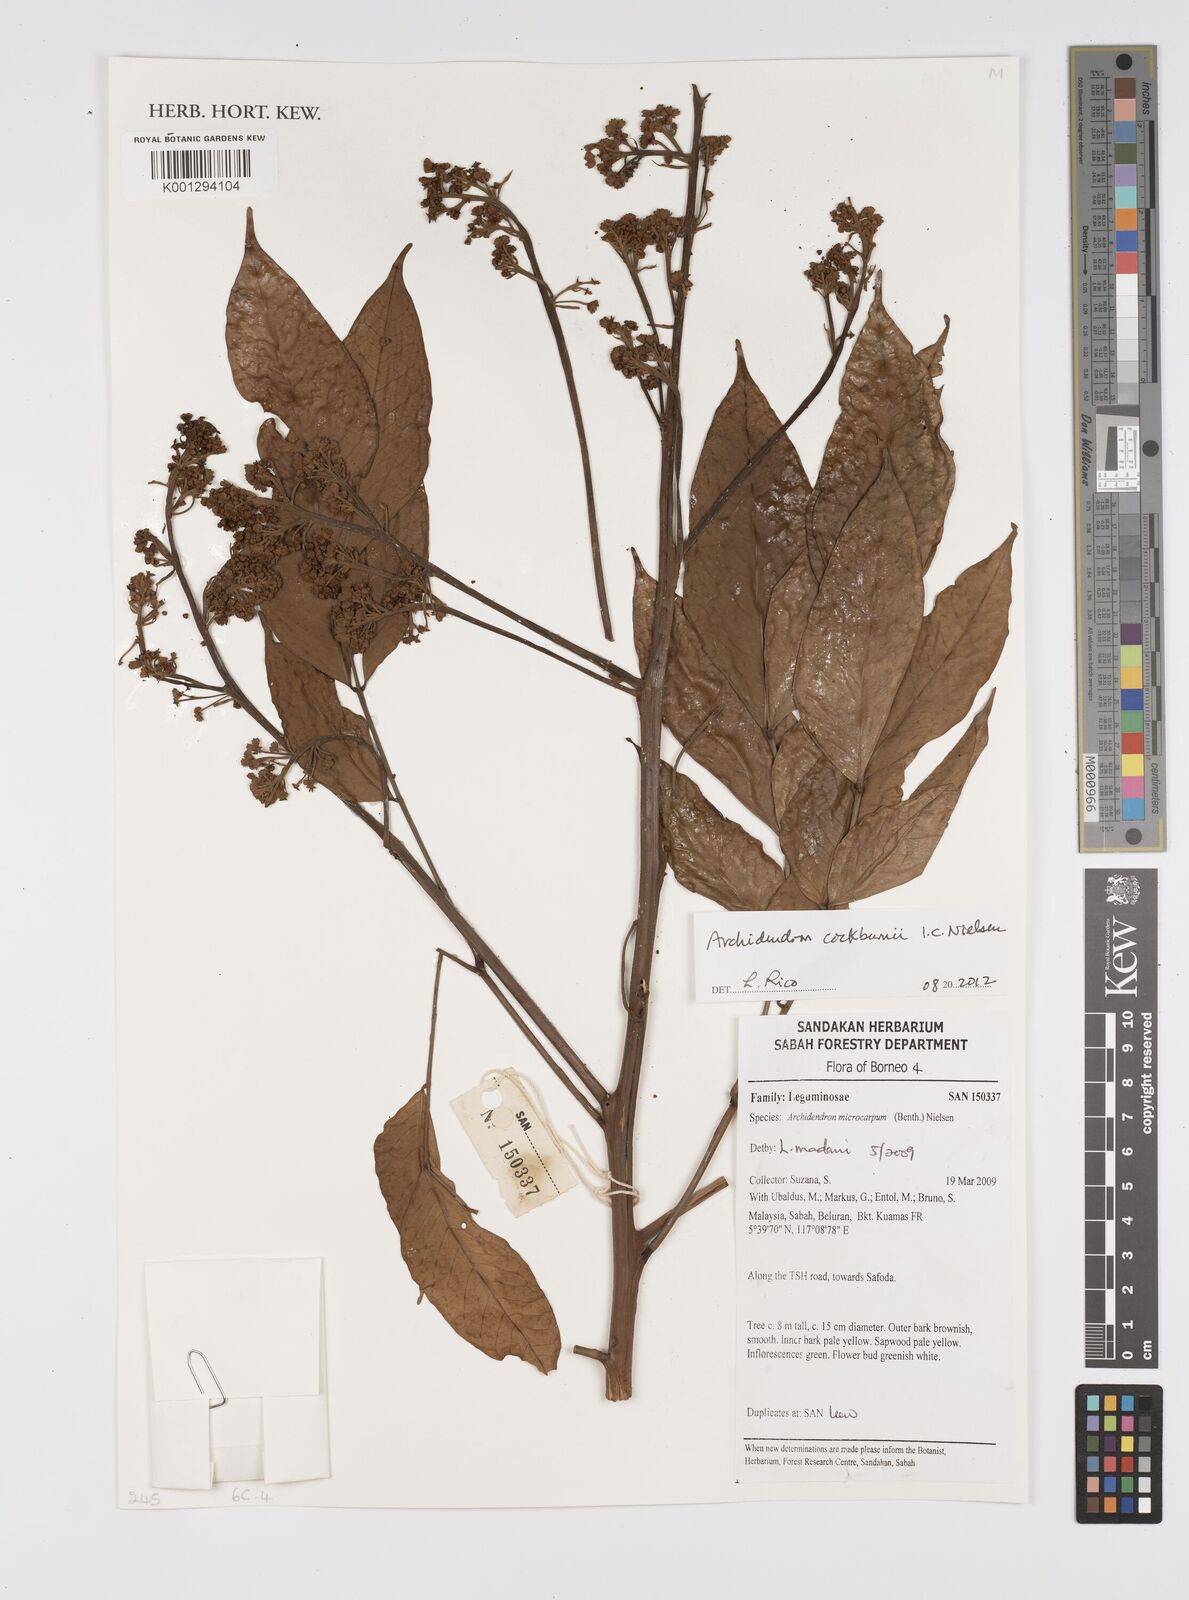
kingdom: Plantae
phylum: Tracheophyta
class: Magnoliopsida
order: Fabales
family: Fabaceae
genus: Archidendron
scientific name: Archidendron cockburnii
